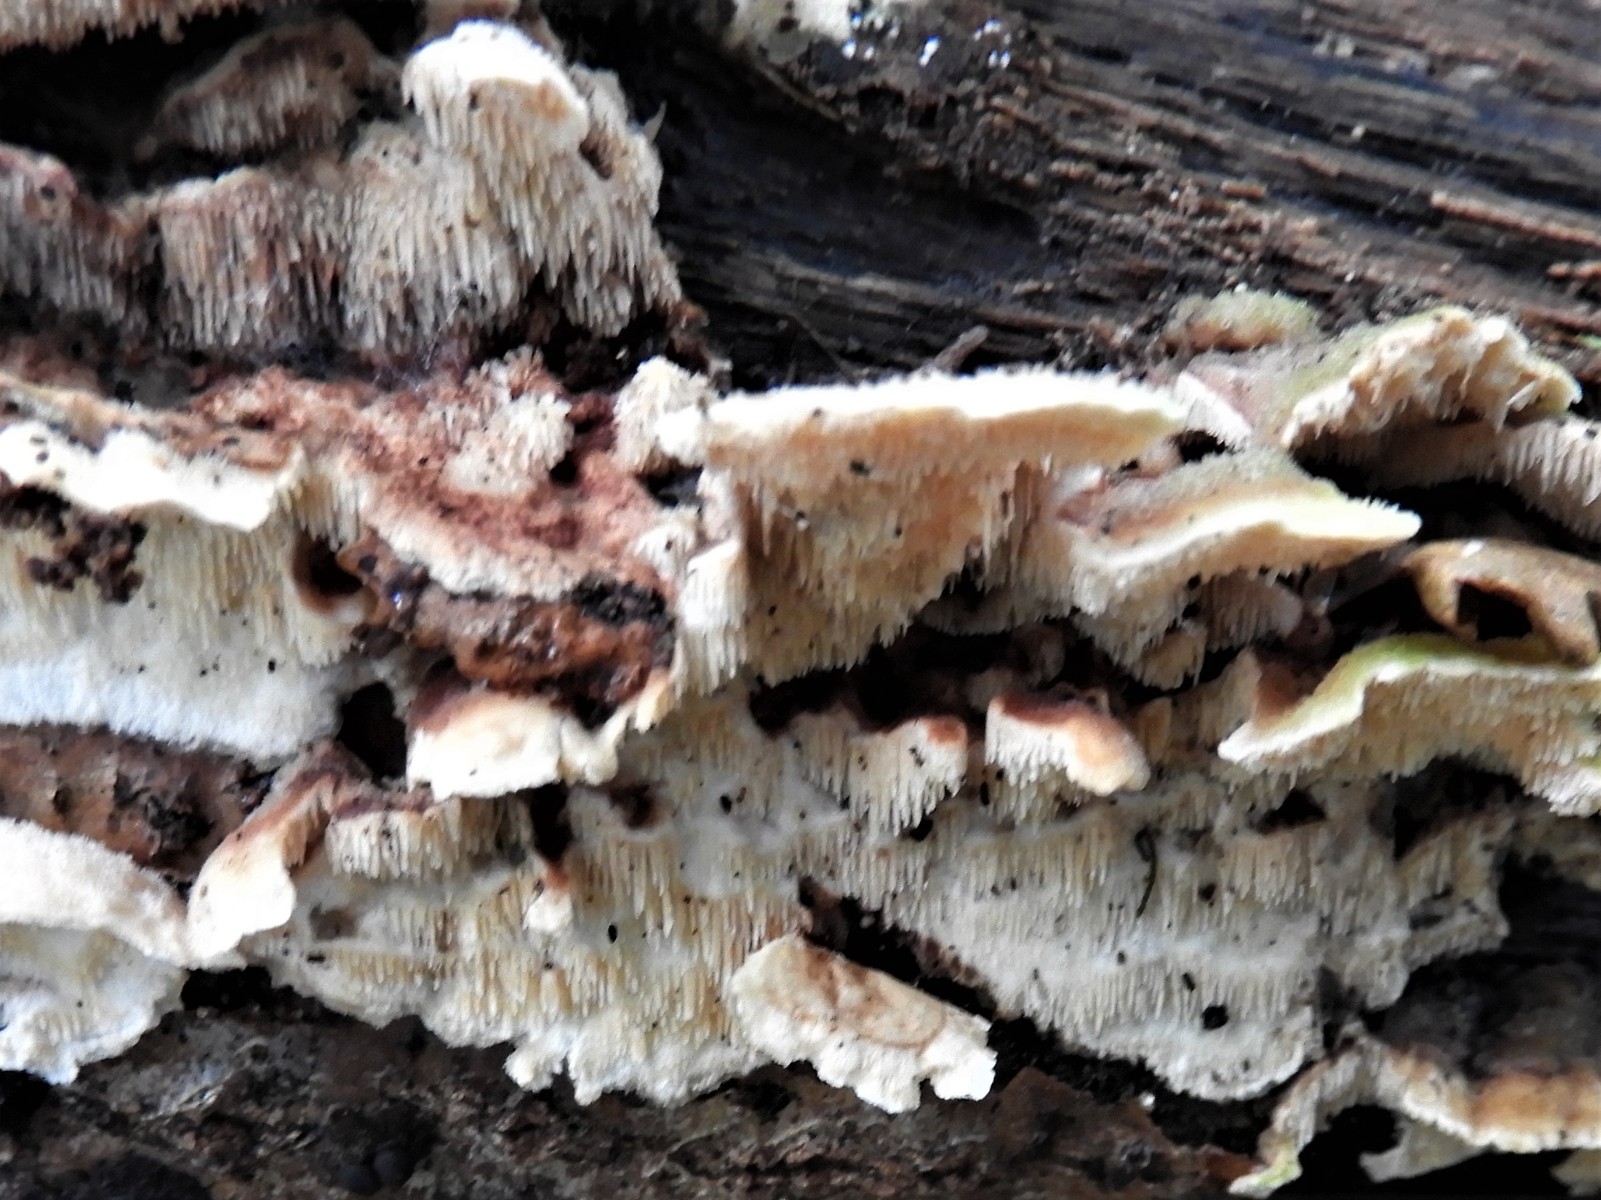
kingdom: Fungi
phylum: Basidiomycota
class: Agaricomycetes
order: Polyporales
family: Steccherinaceae
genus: Steccherinum
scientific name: Steccherinum bourdotii
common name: hat-skønpig
